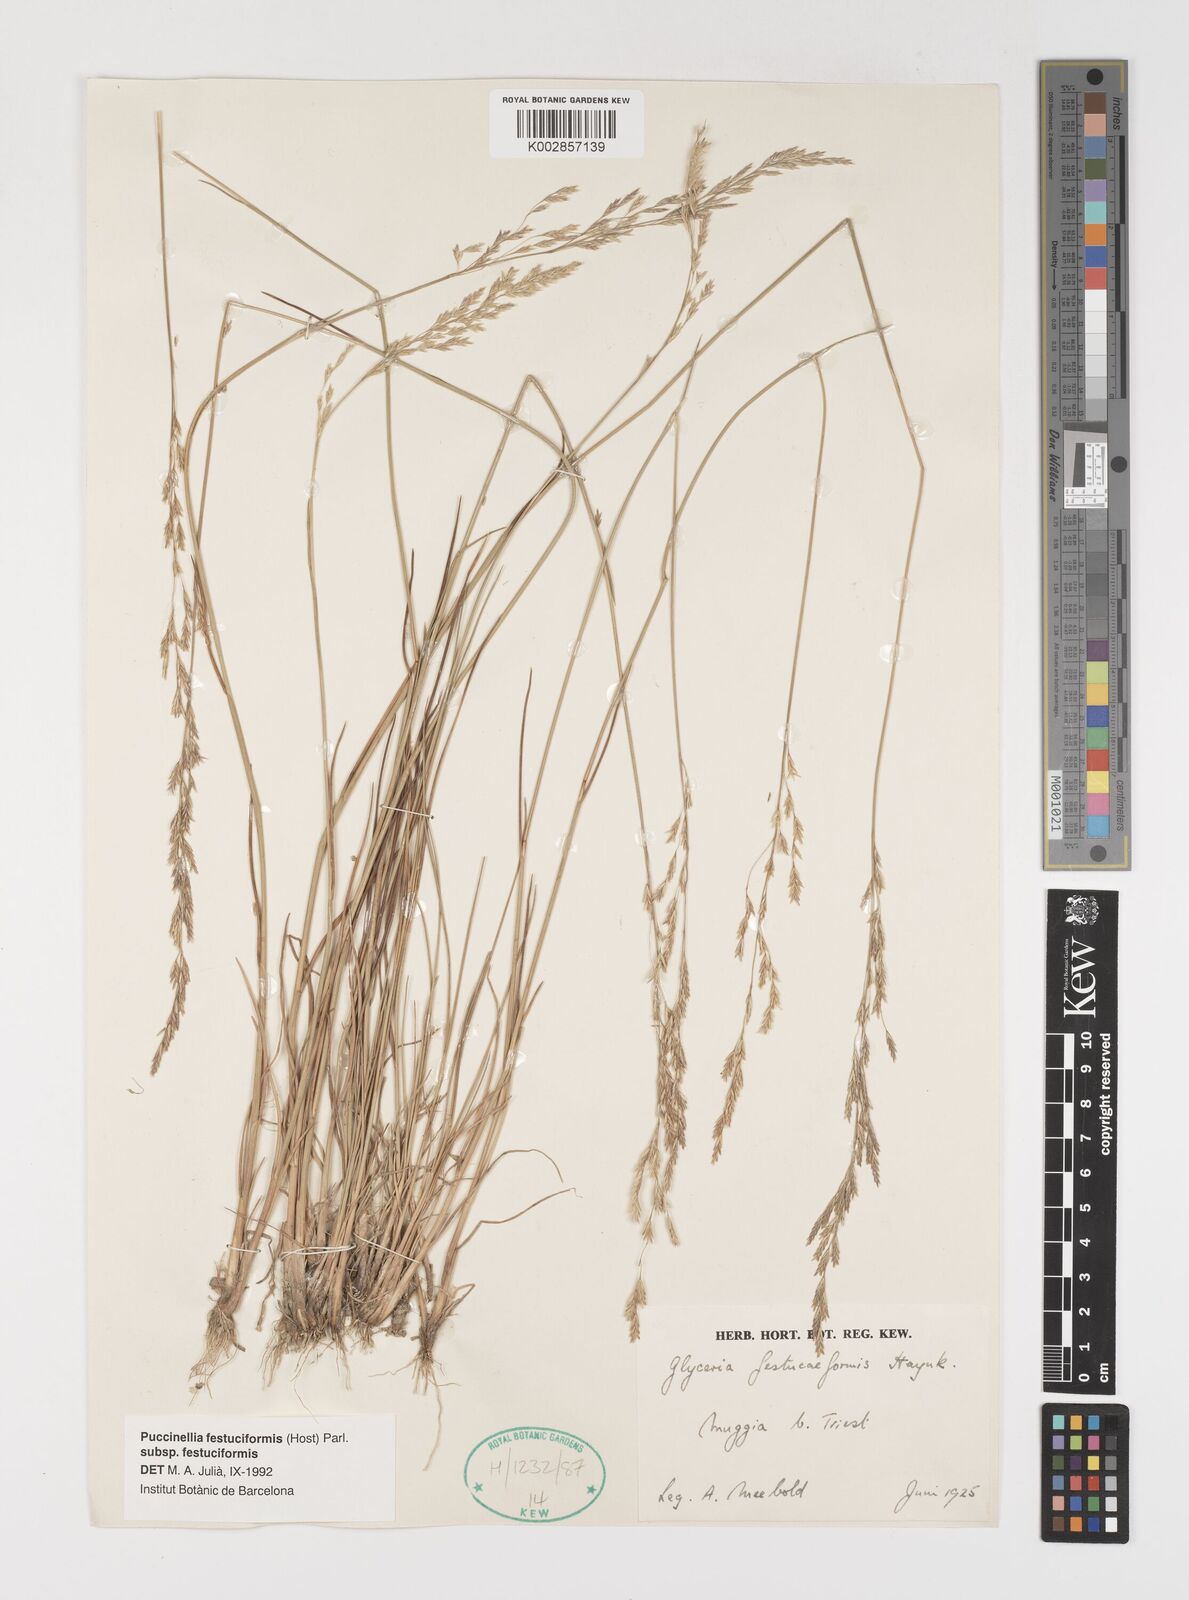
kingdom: Plantae
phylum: Tracheophyta
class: Liliopsida
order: Poales
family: Poaceae
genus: Puccinellia
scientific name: Puccinellia festuciformis
